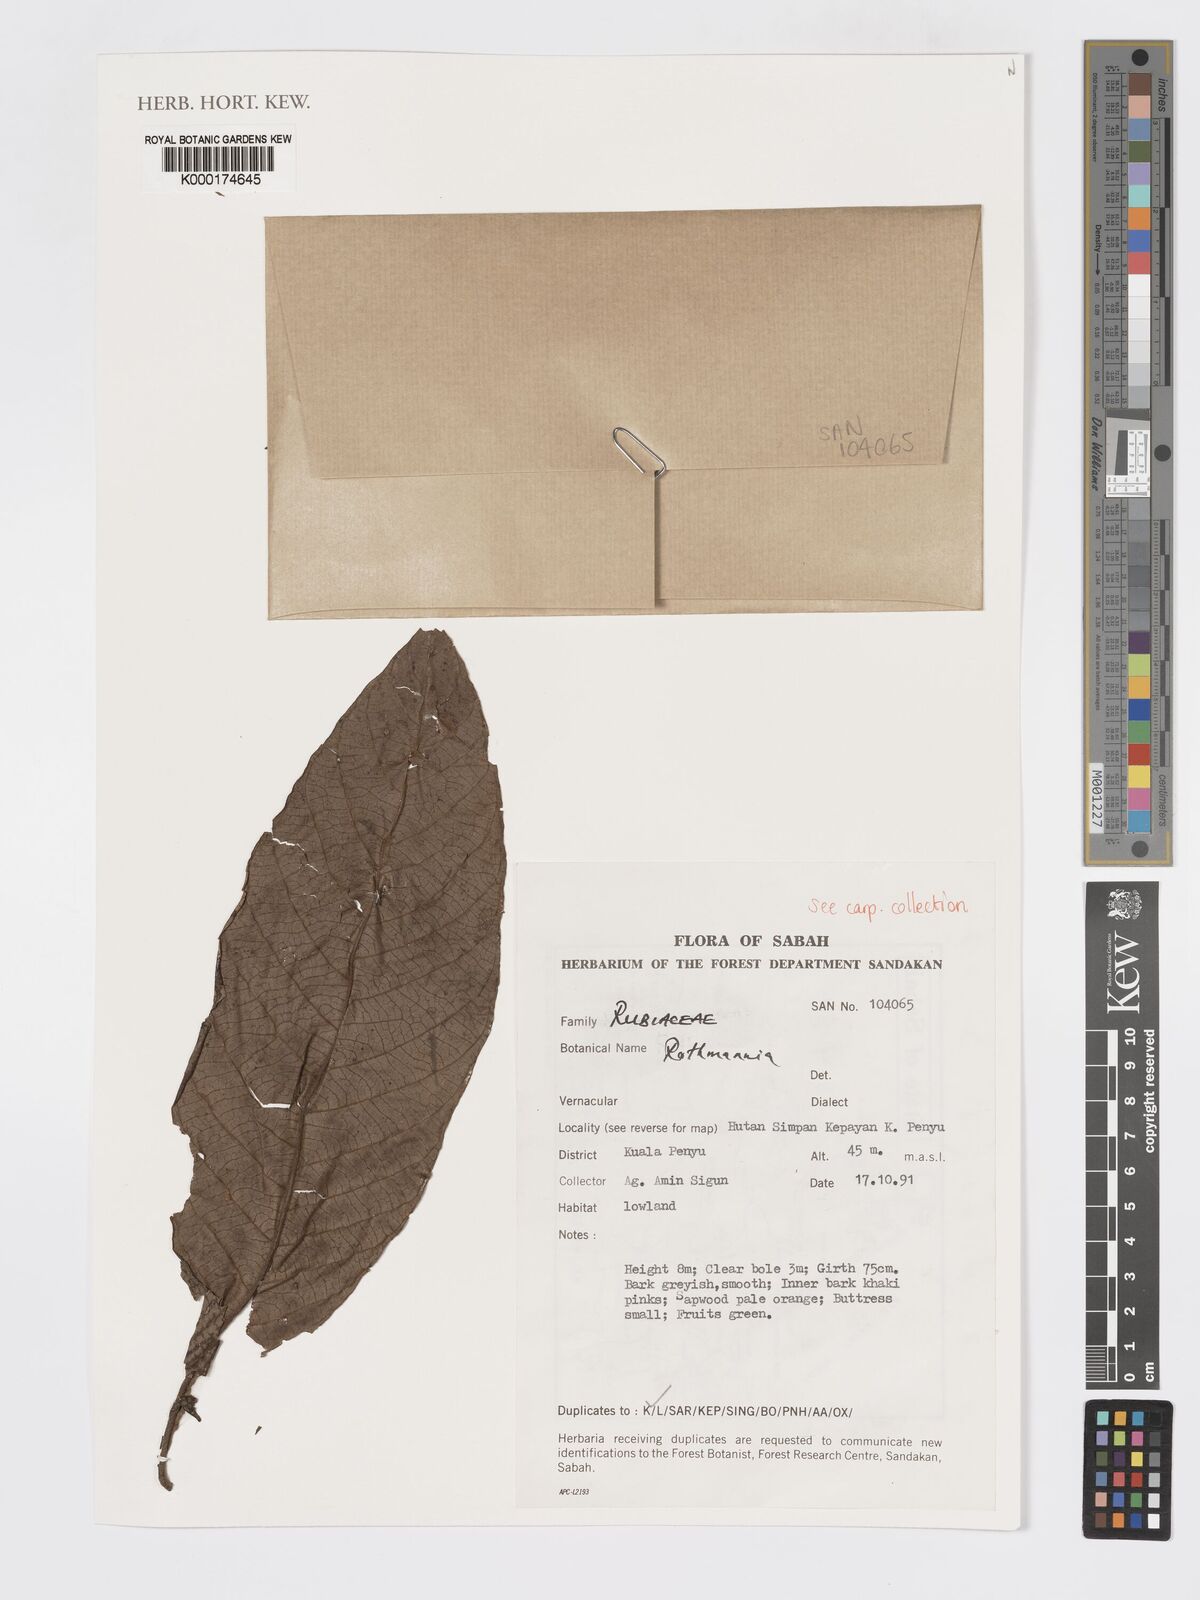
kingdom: Plantae
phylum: Tracheophyta
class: Magnoliopsida
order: Gentianales
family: Rubiaceae
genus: Ridsdalea
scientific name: Ridsdalea
